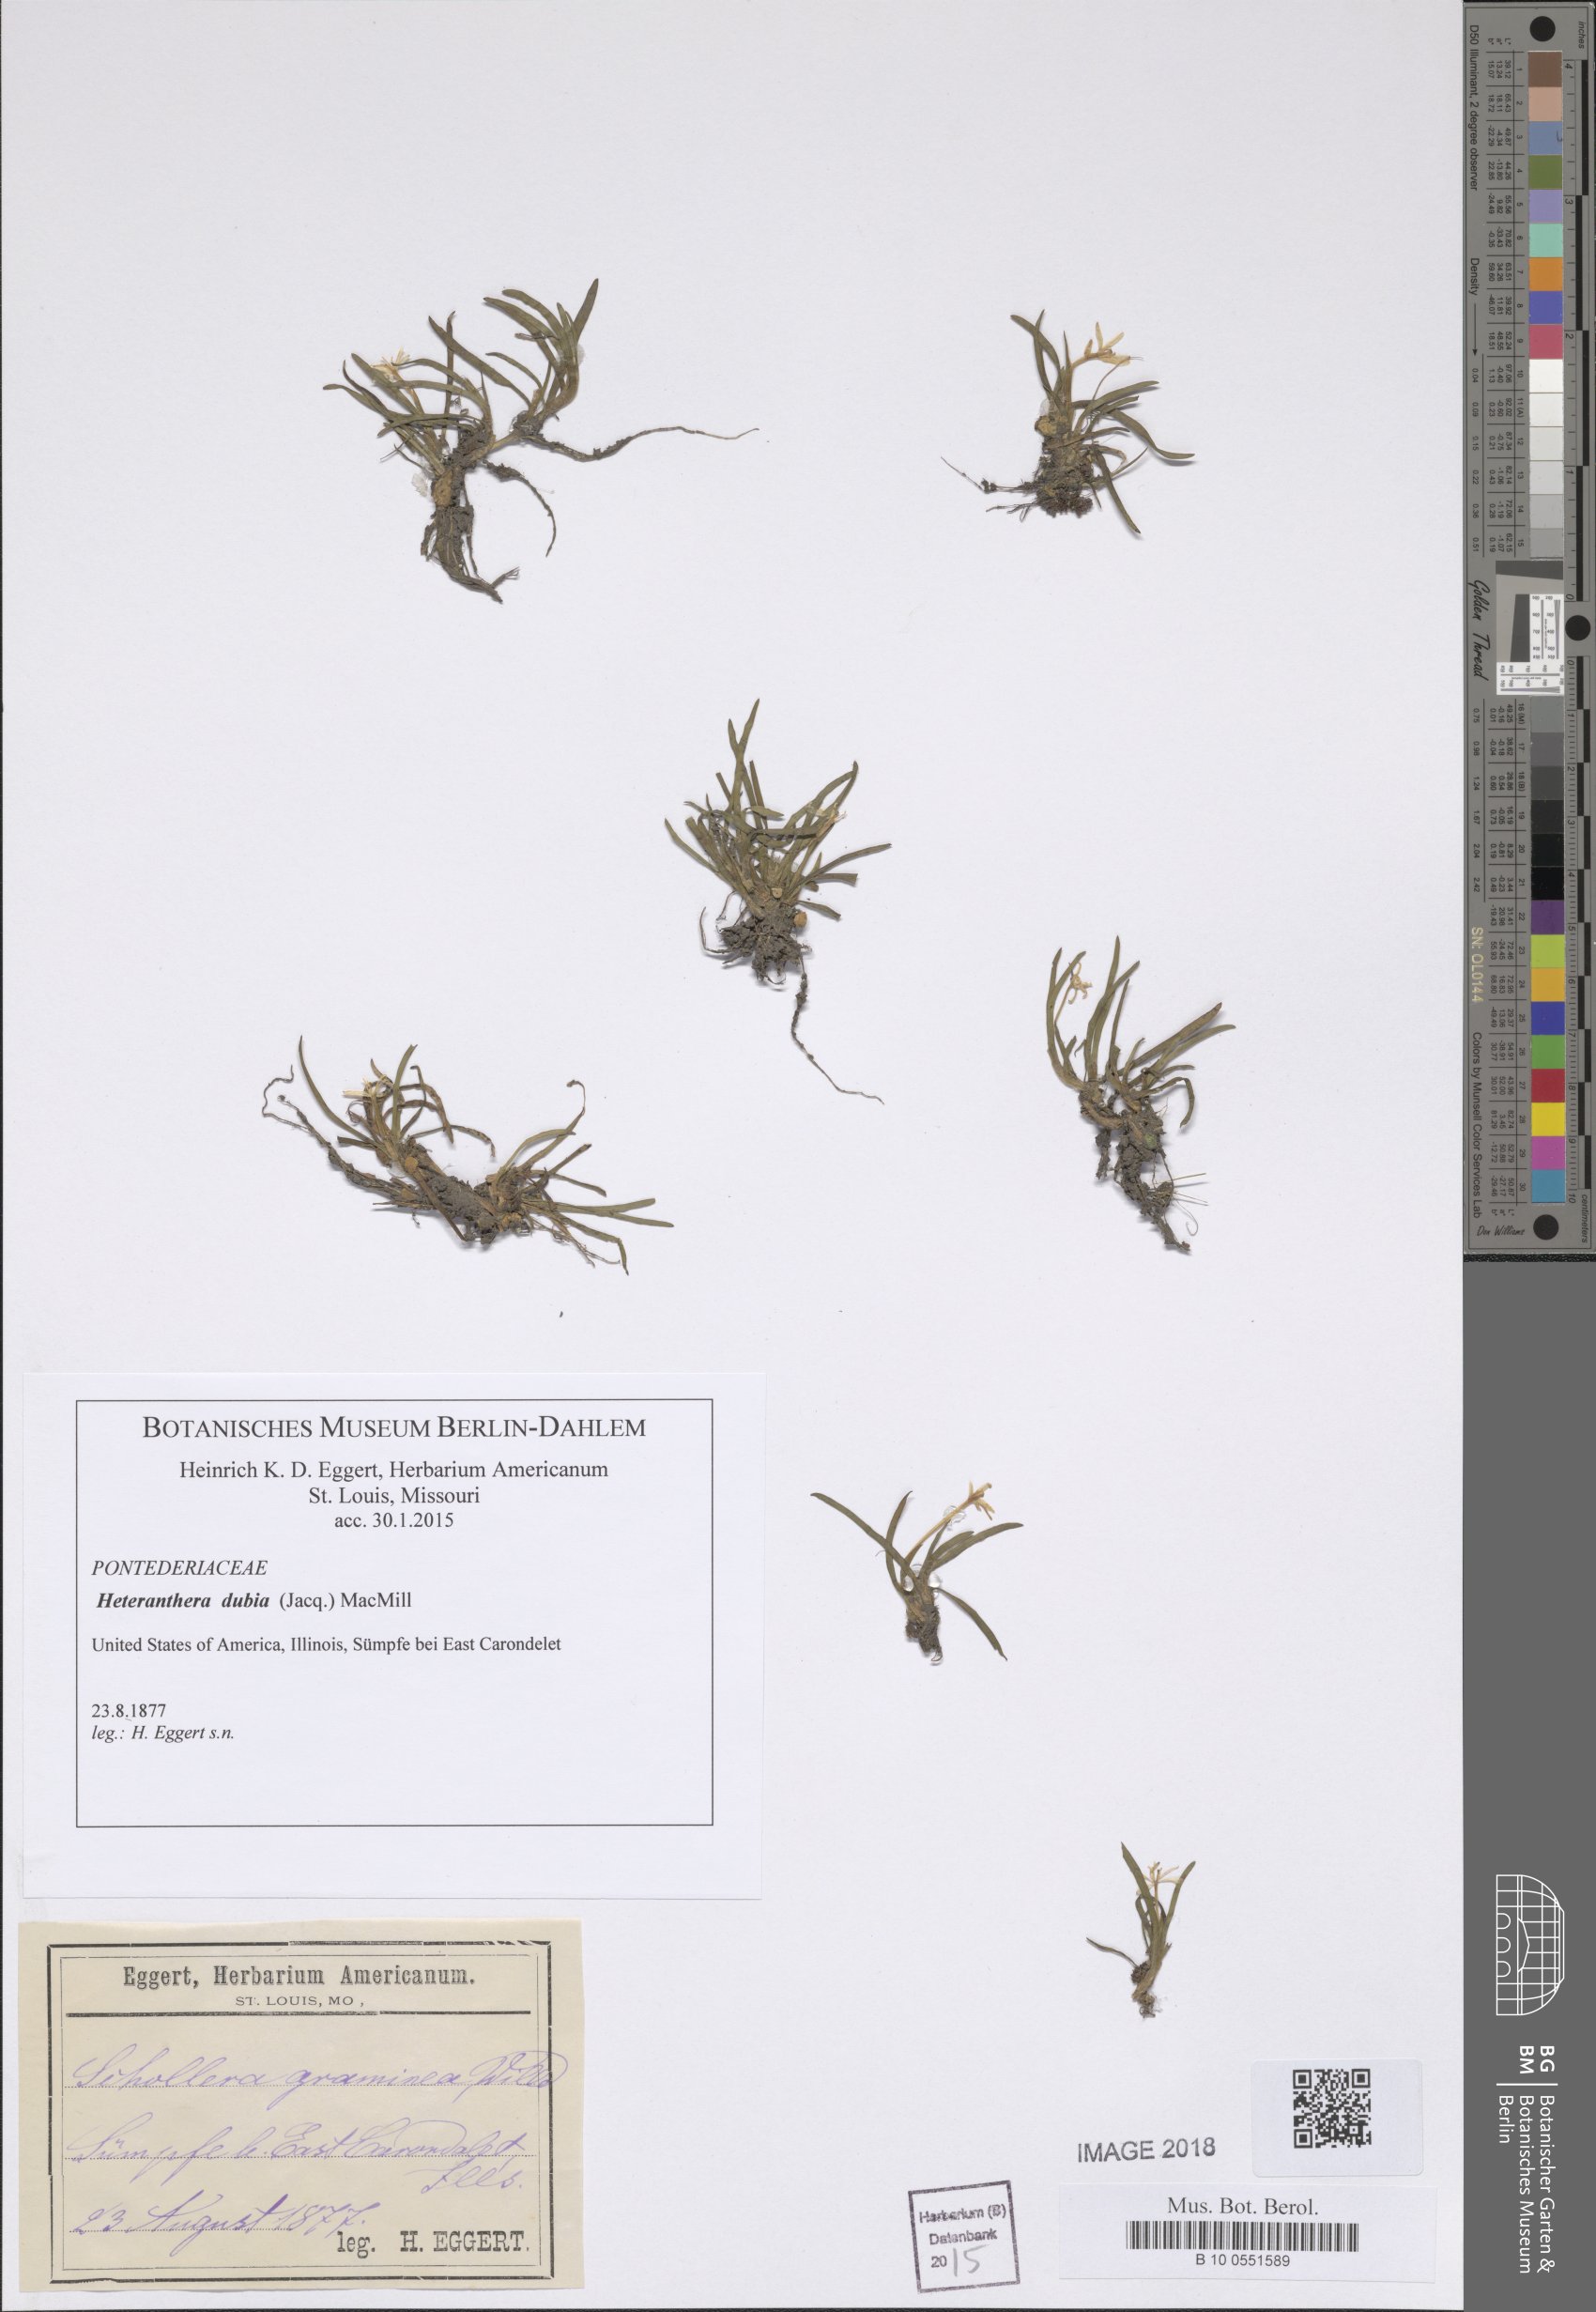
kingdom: Plantae
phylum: Tracheophyta
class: Liliopsida
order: Commelinales
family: Pontederiaceae
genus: Heteranthera
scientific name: Heteranthera dubia
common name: Grass-leaved mud plantain
